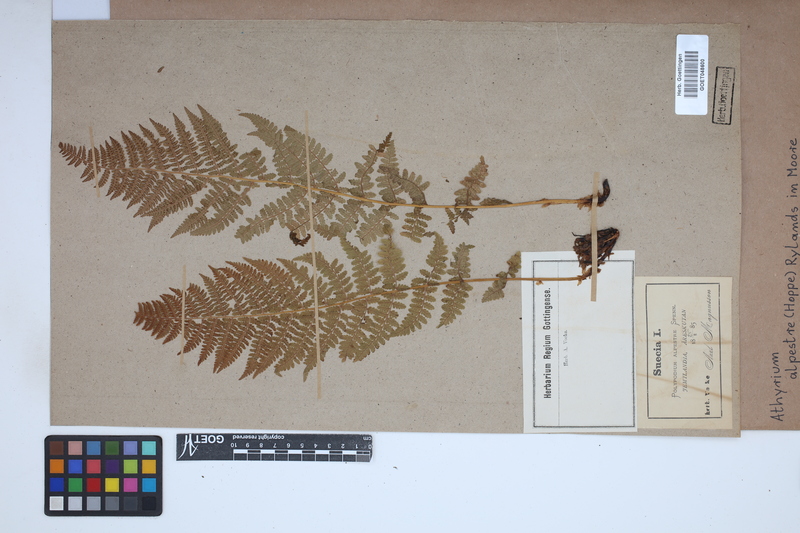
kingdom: Plantae
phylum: Tracheophyta
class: Polypodiopsida
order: Polypodiales
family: Athyriaceae
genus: Pseudathyrium
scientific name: Pseudathyrium alpestre
